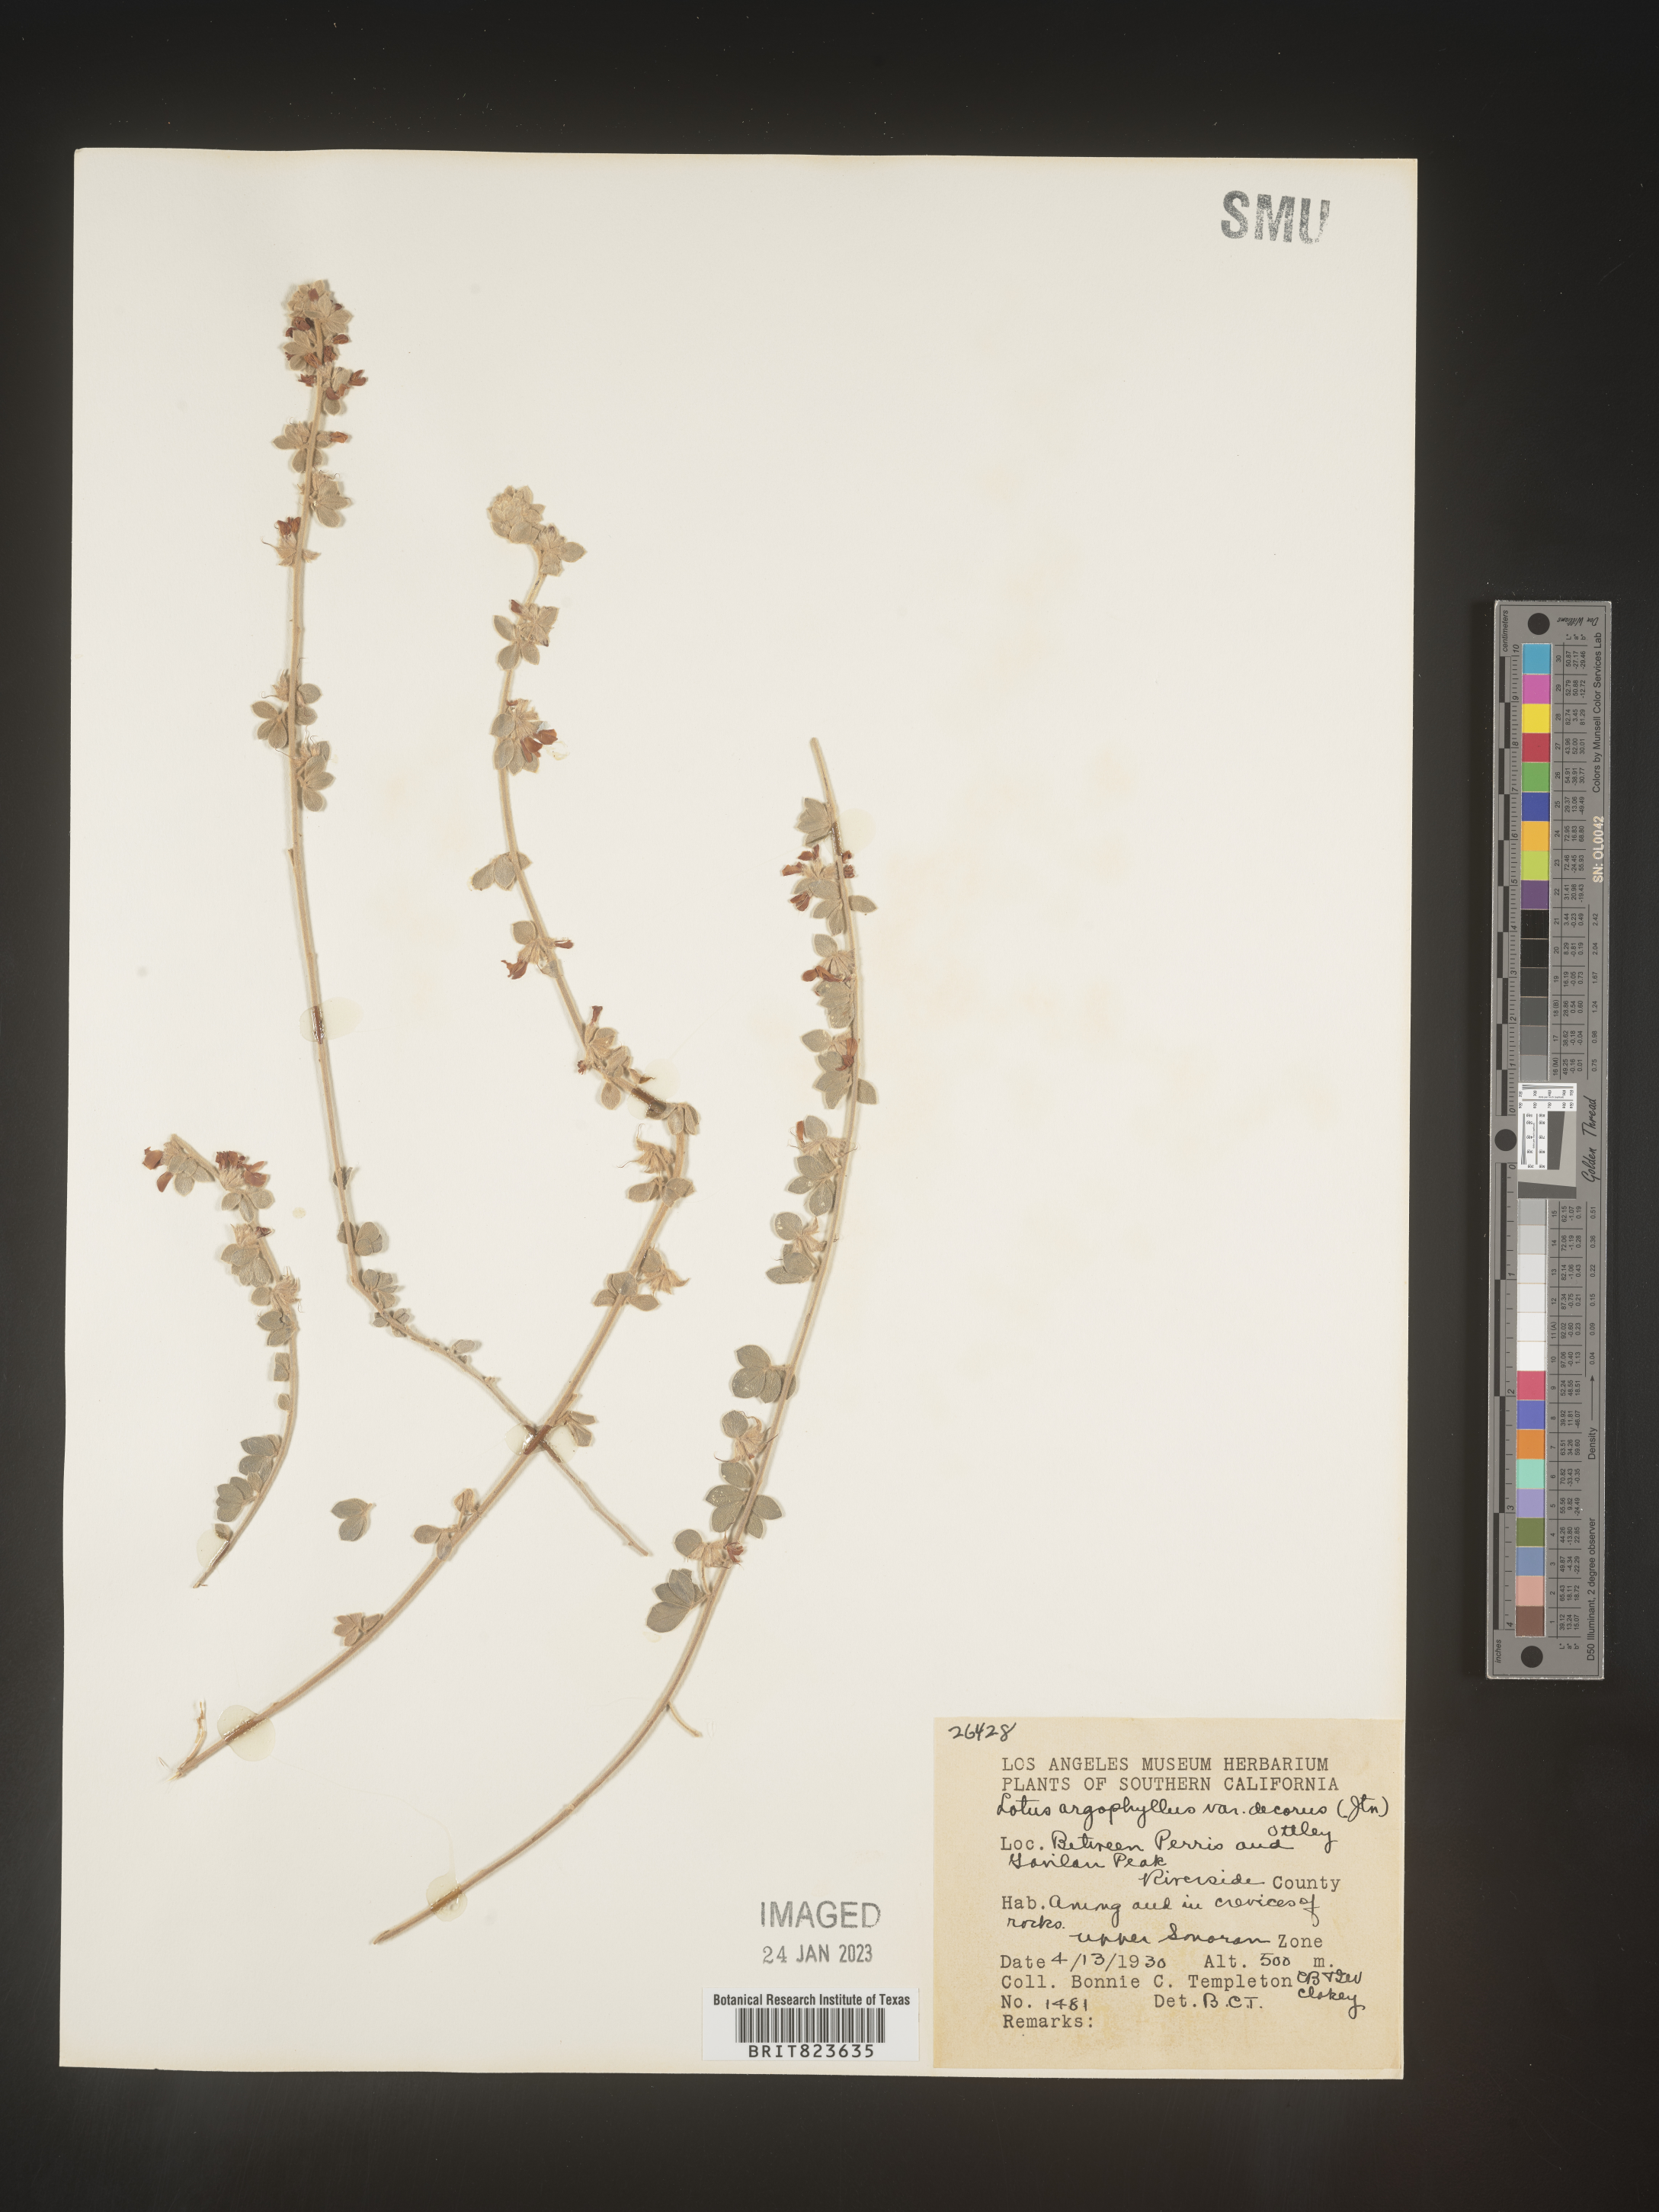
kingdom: Plantae
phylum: Tracheophyta
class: Magnoliopsida
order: Fabales
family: Fabaceae
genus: Lotus
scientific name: Lotus
